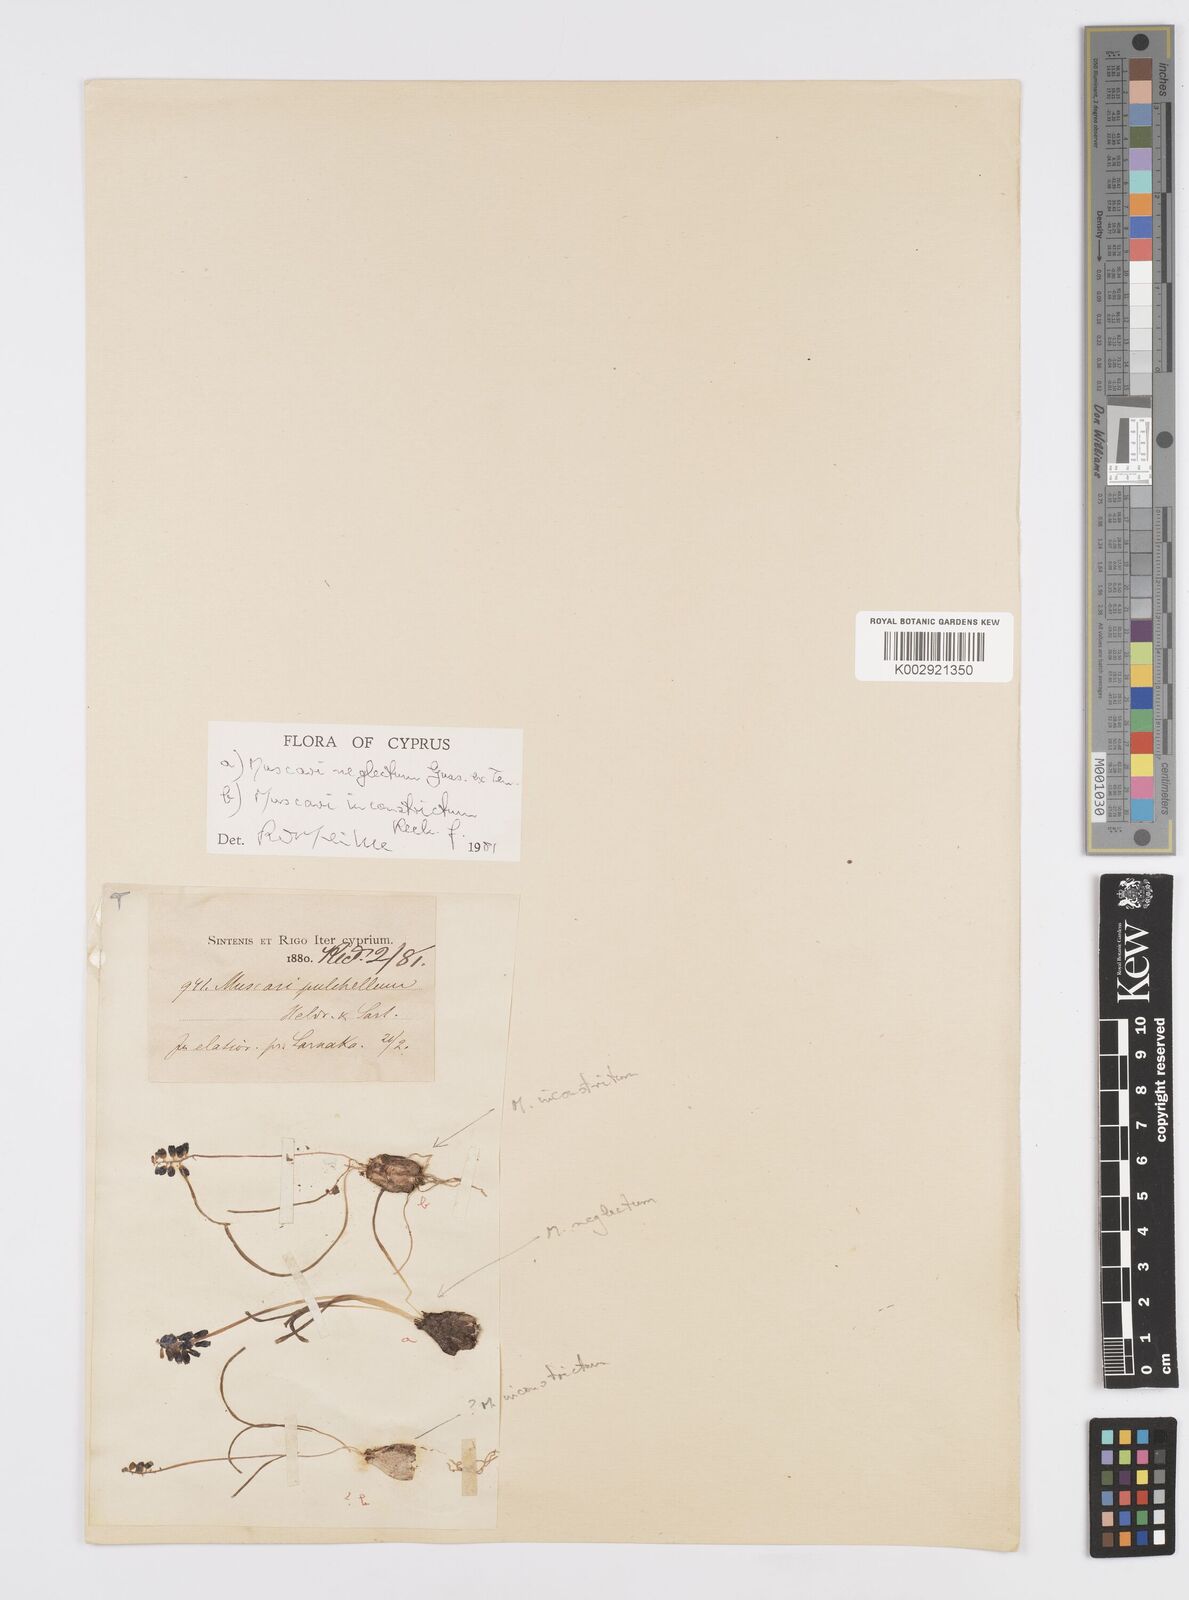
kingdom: Plantae
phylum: Tracheophyta
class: Liliopsida
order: Asparagales
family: Asparagaceae
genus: Muscari
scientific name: Muscari inconstrictum
